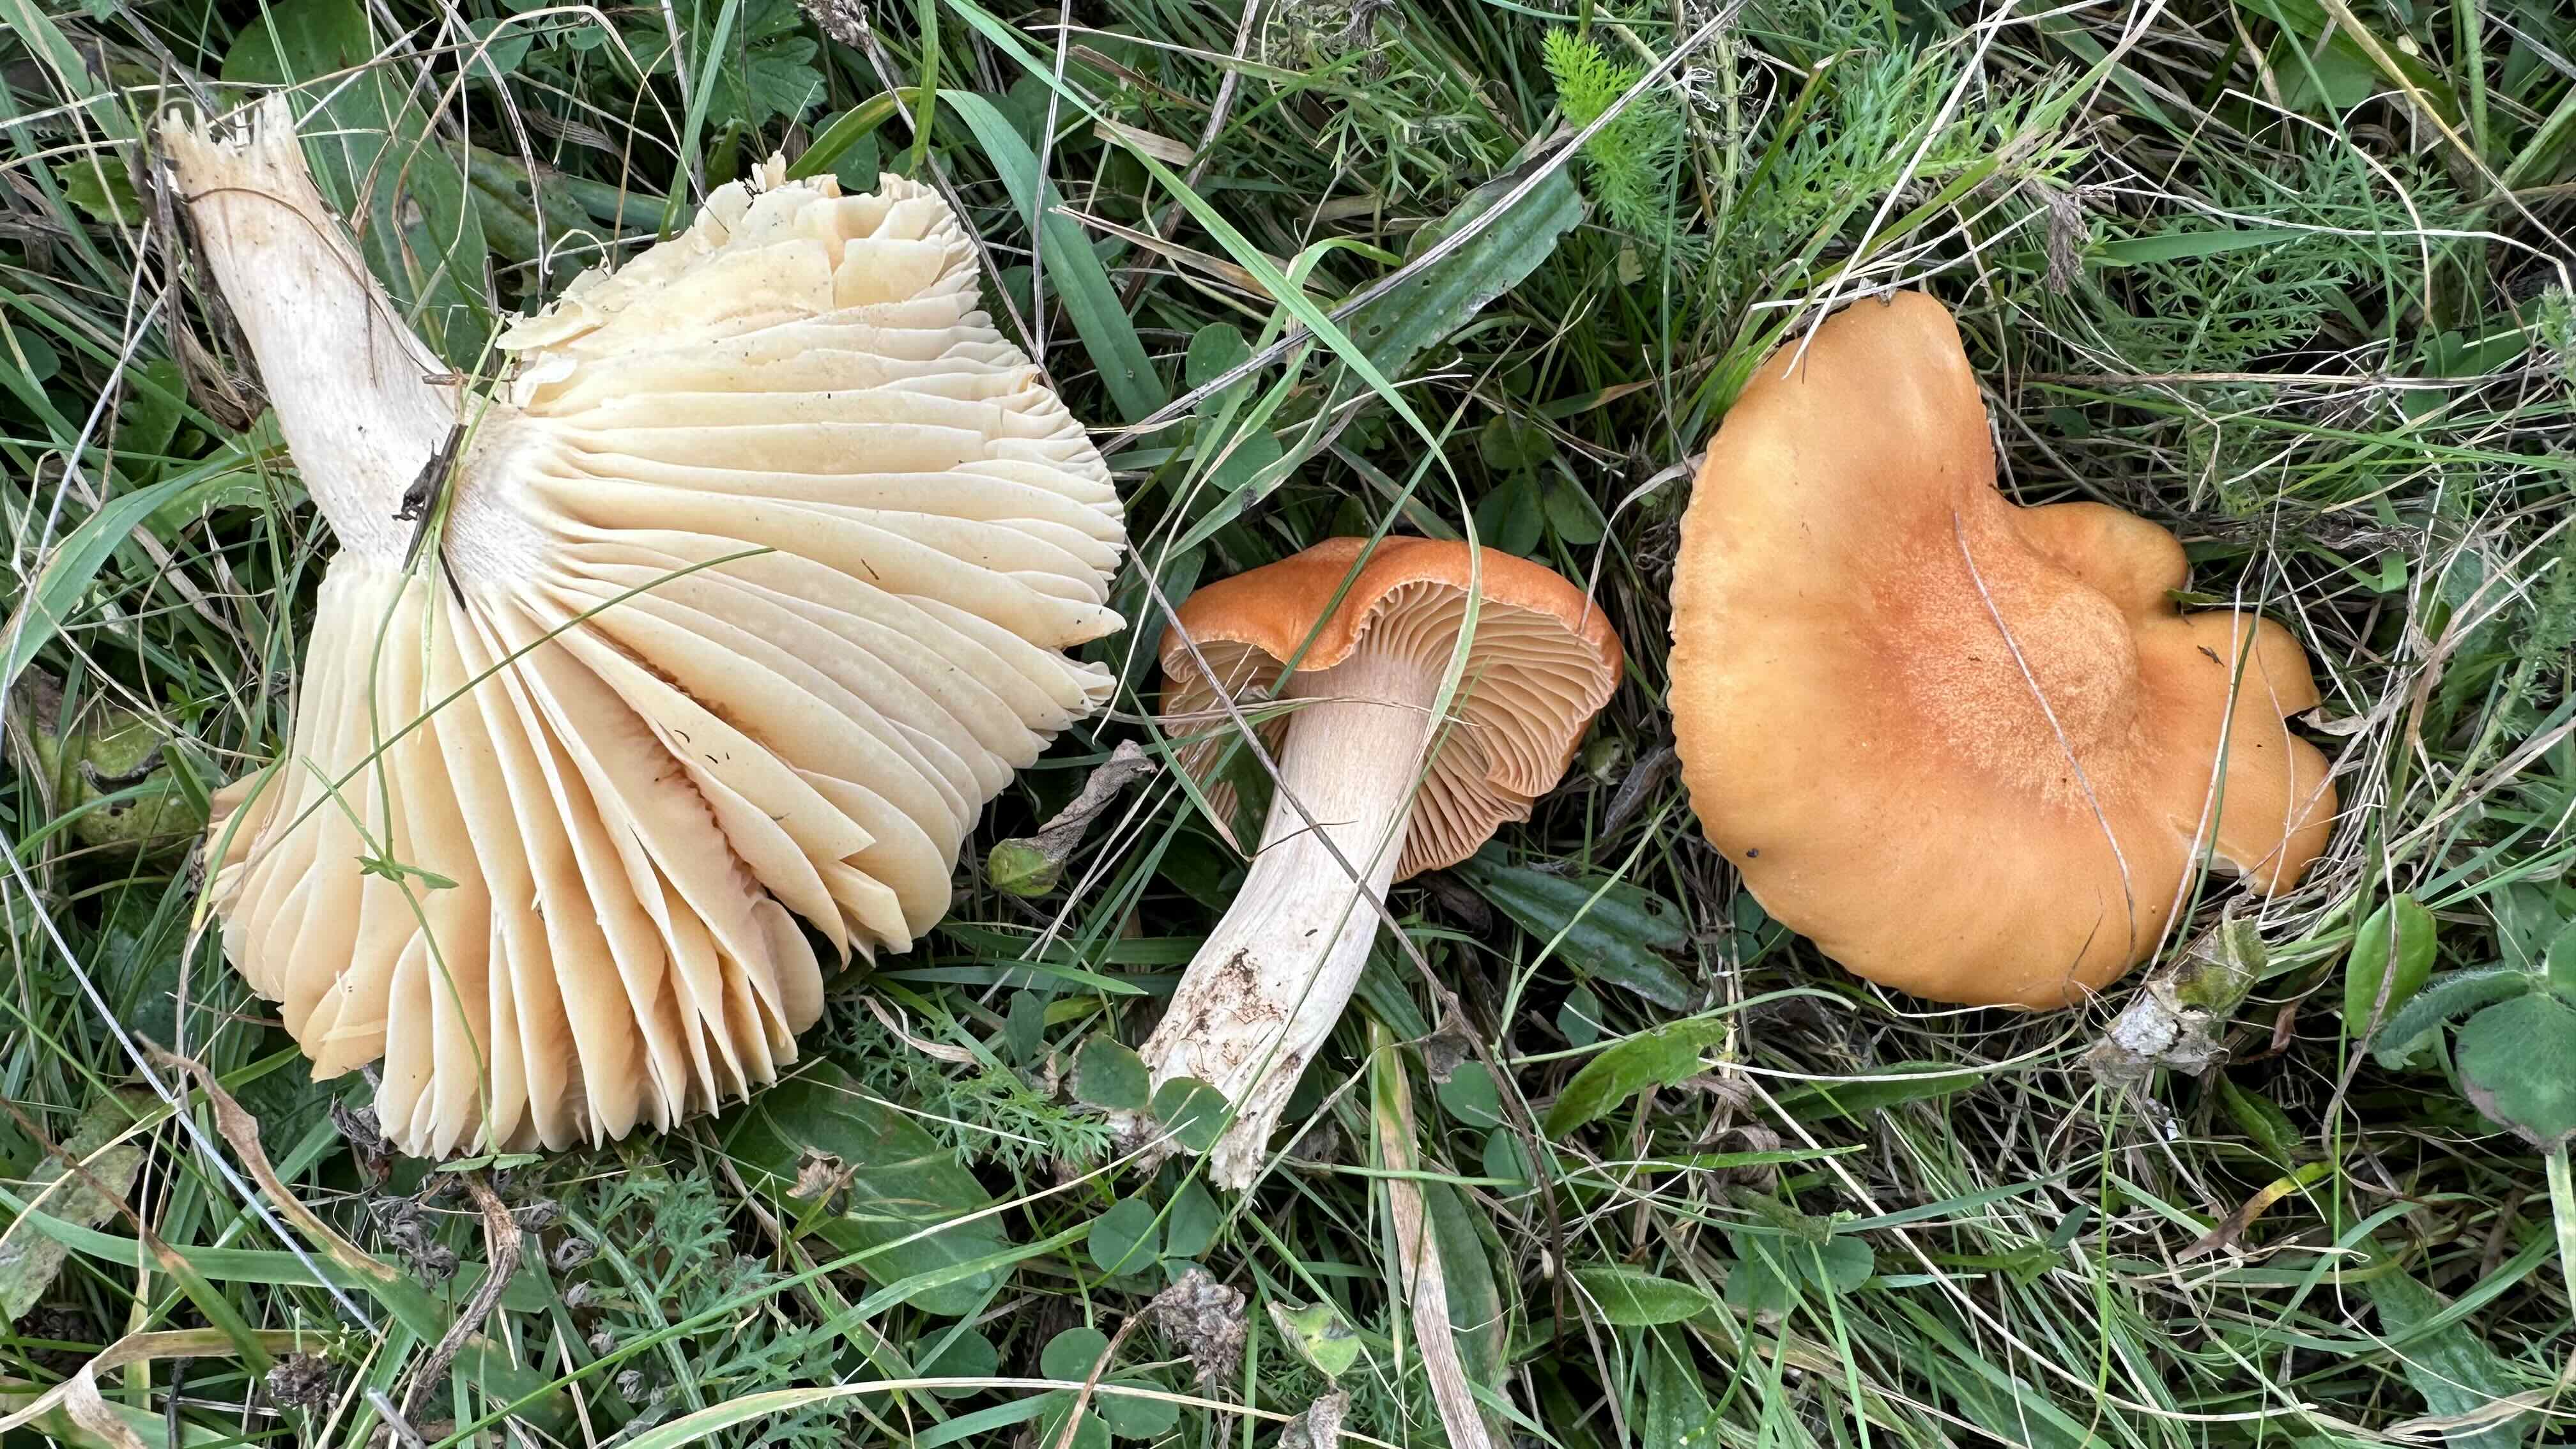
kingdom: Fungi
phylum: Basidiomycota
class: Agaricomycetes
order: Agaricales
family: Hygrophoraceae
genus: Cuphophyllus
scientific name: Cuphophyllus pratensis
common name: eng-vokshat
